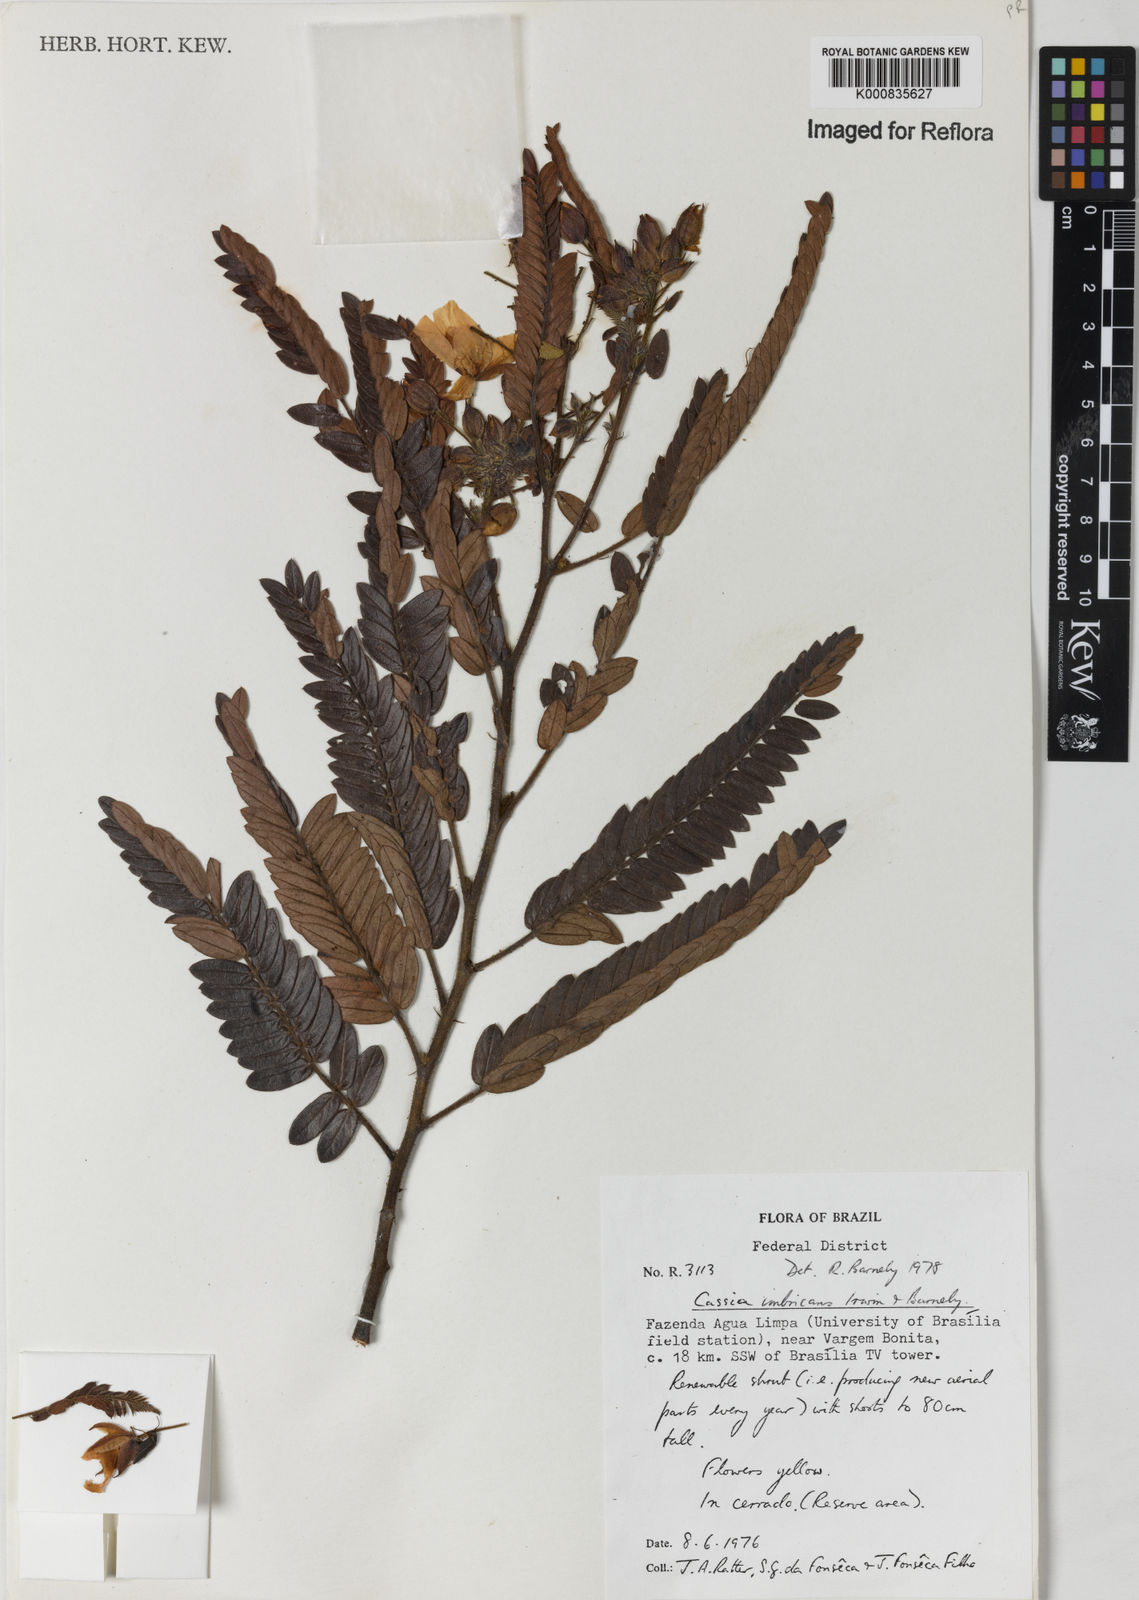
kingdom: Plantae
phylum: Tracheophyta
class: Magnoliopsida
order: Fabales
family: Fabaceae
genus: Chamaecrista
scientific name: Chamaecrista imbricans
